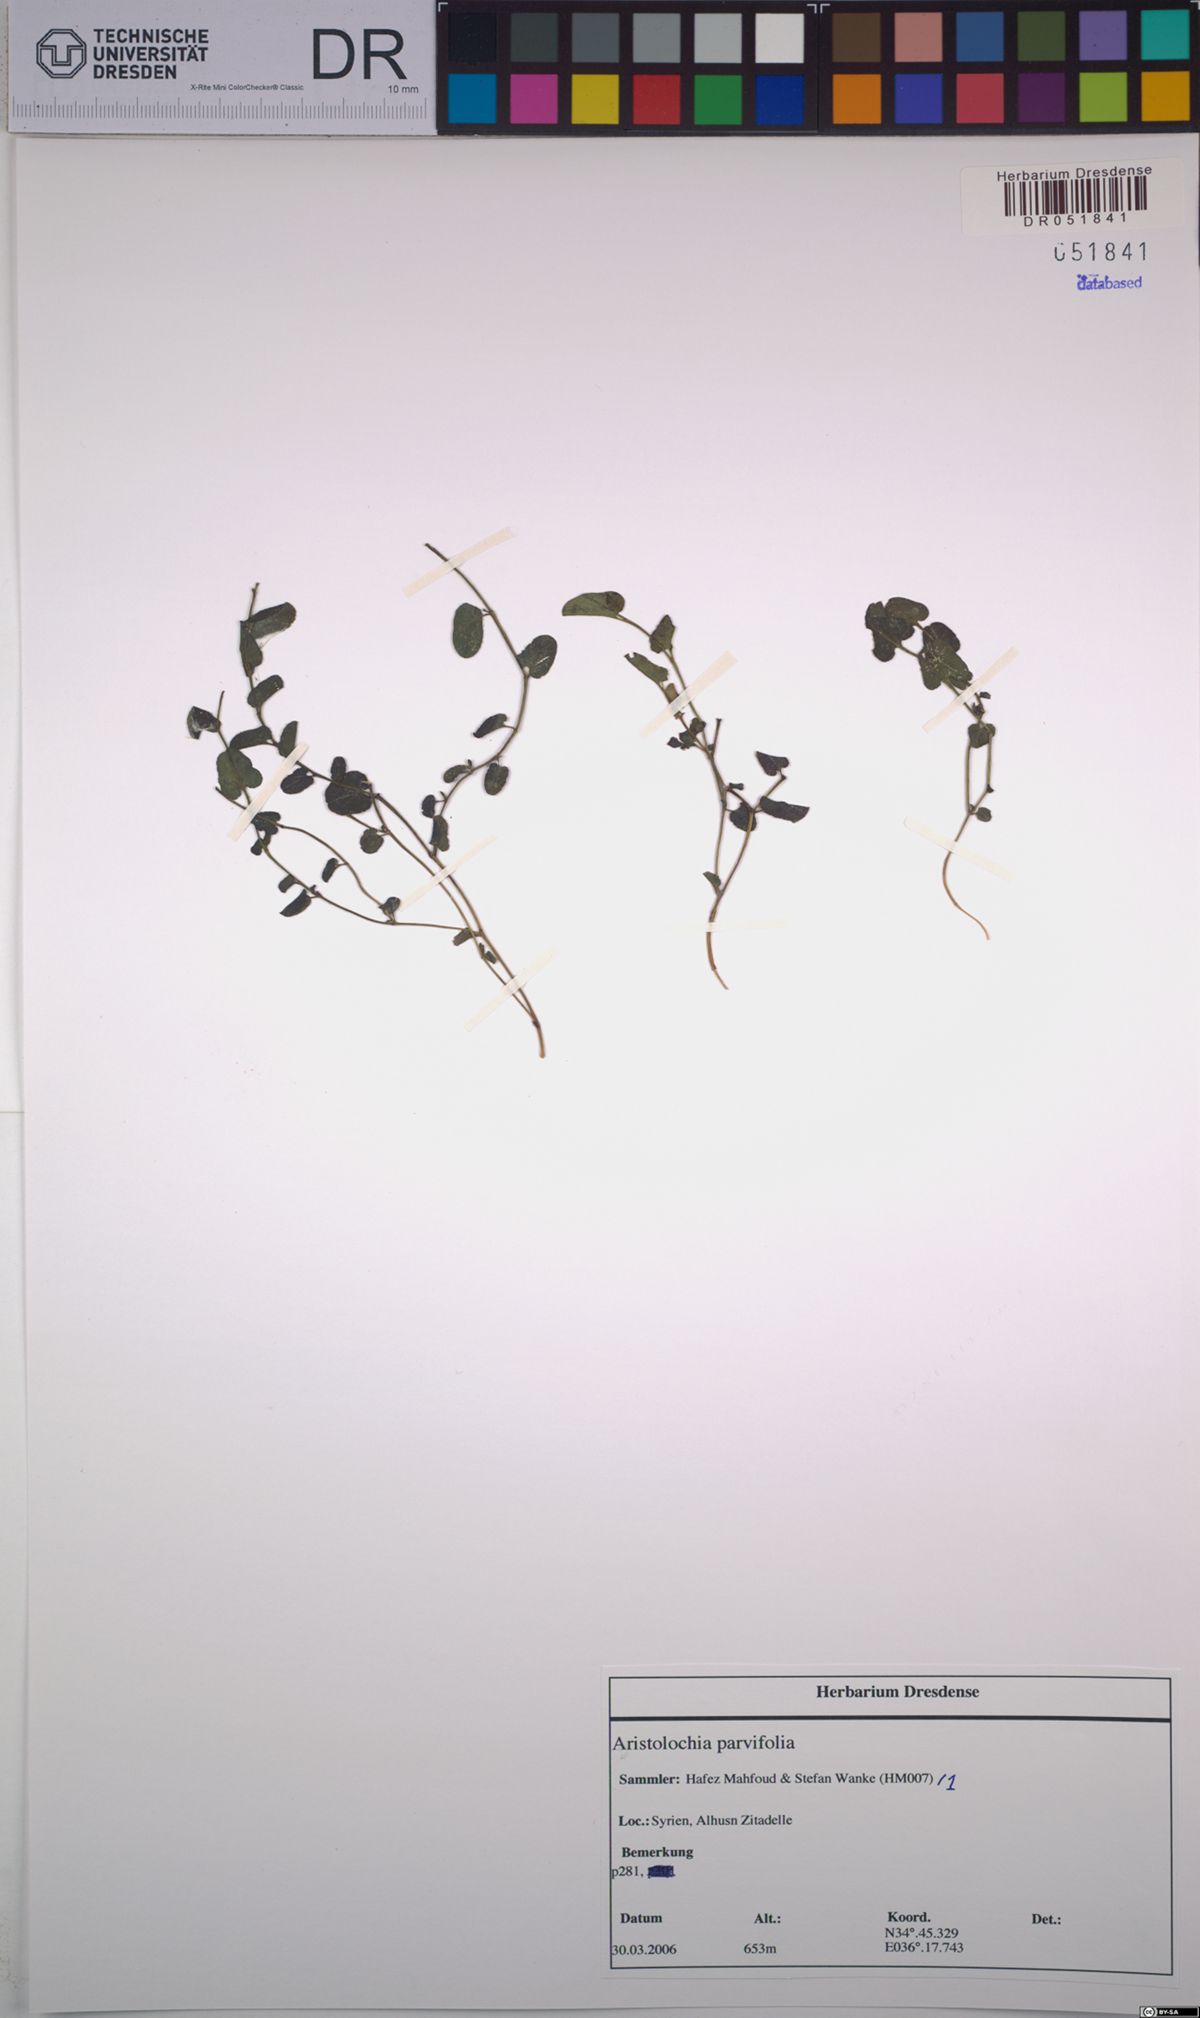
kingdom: Plantae
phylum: Tracheophyta
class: Magnoliopsida
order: Piperales
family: Aristolochiaceae
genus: Aristolochia
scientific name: Aristolochia parvifolia
